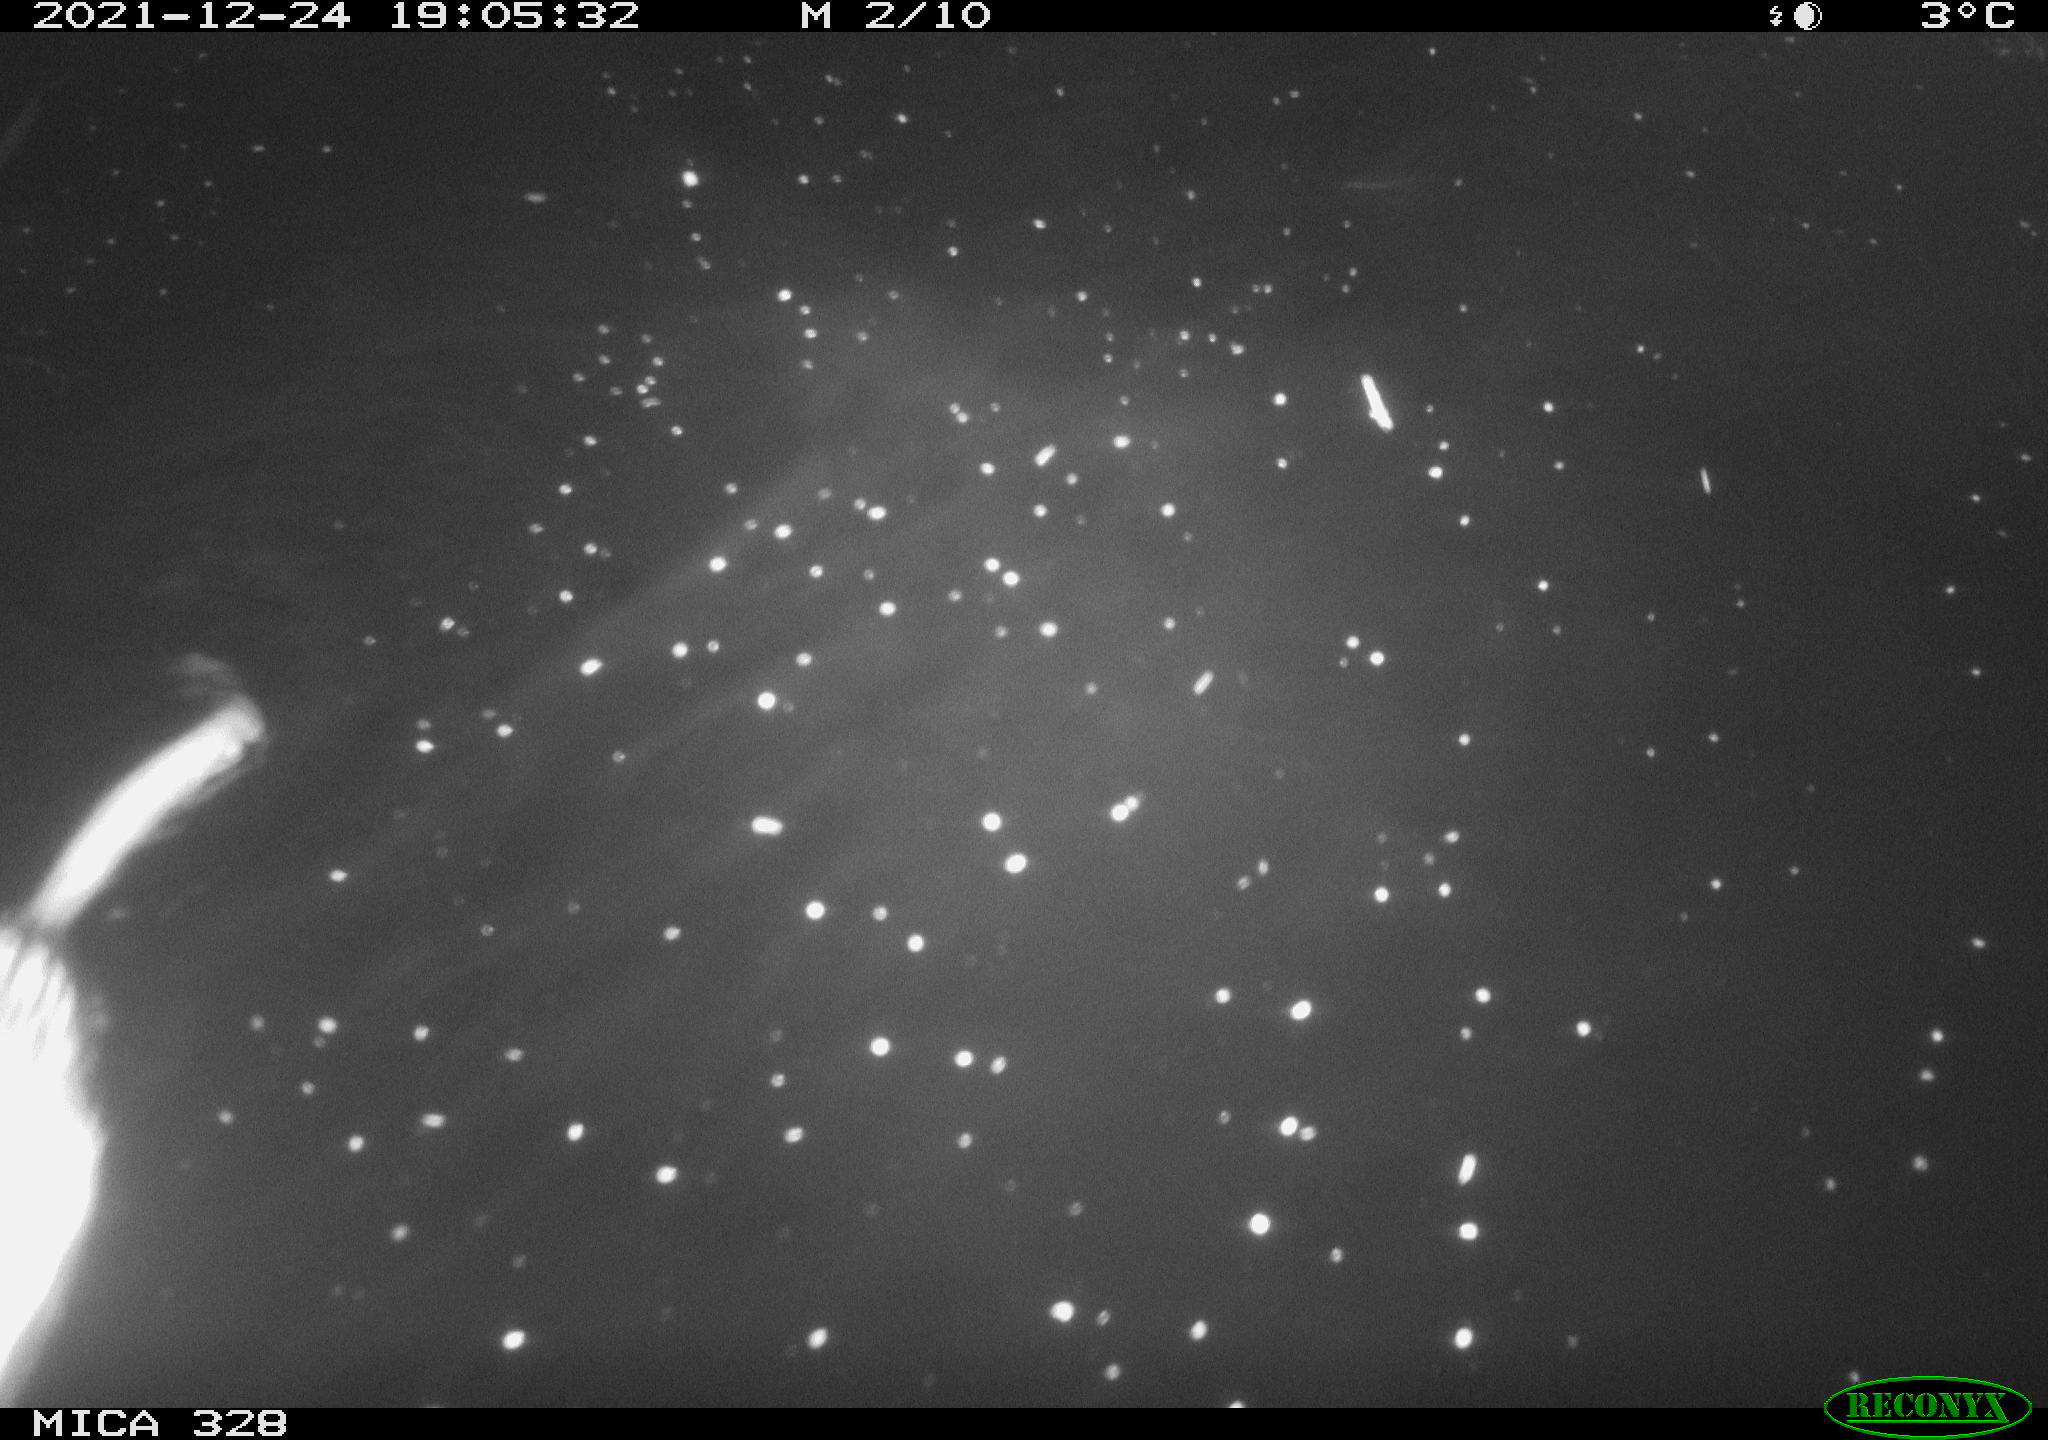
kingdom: Animalia
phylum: Chordata
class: Mammalia
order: Rodentia
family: Cricetidae
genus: Ondatra
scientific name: Ondatra zibethicus
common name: Muskrat
